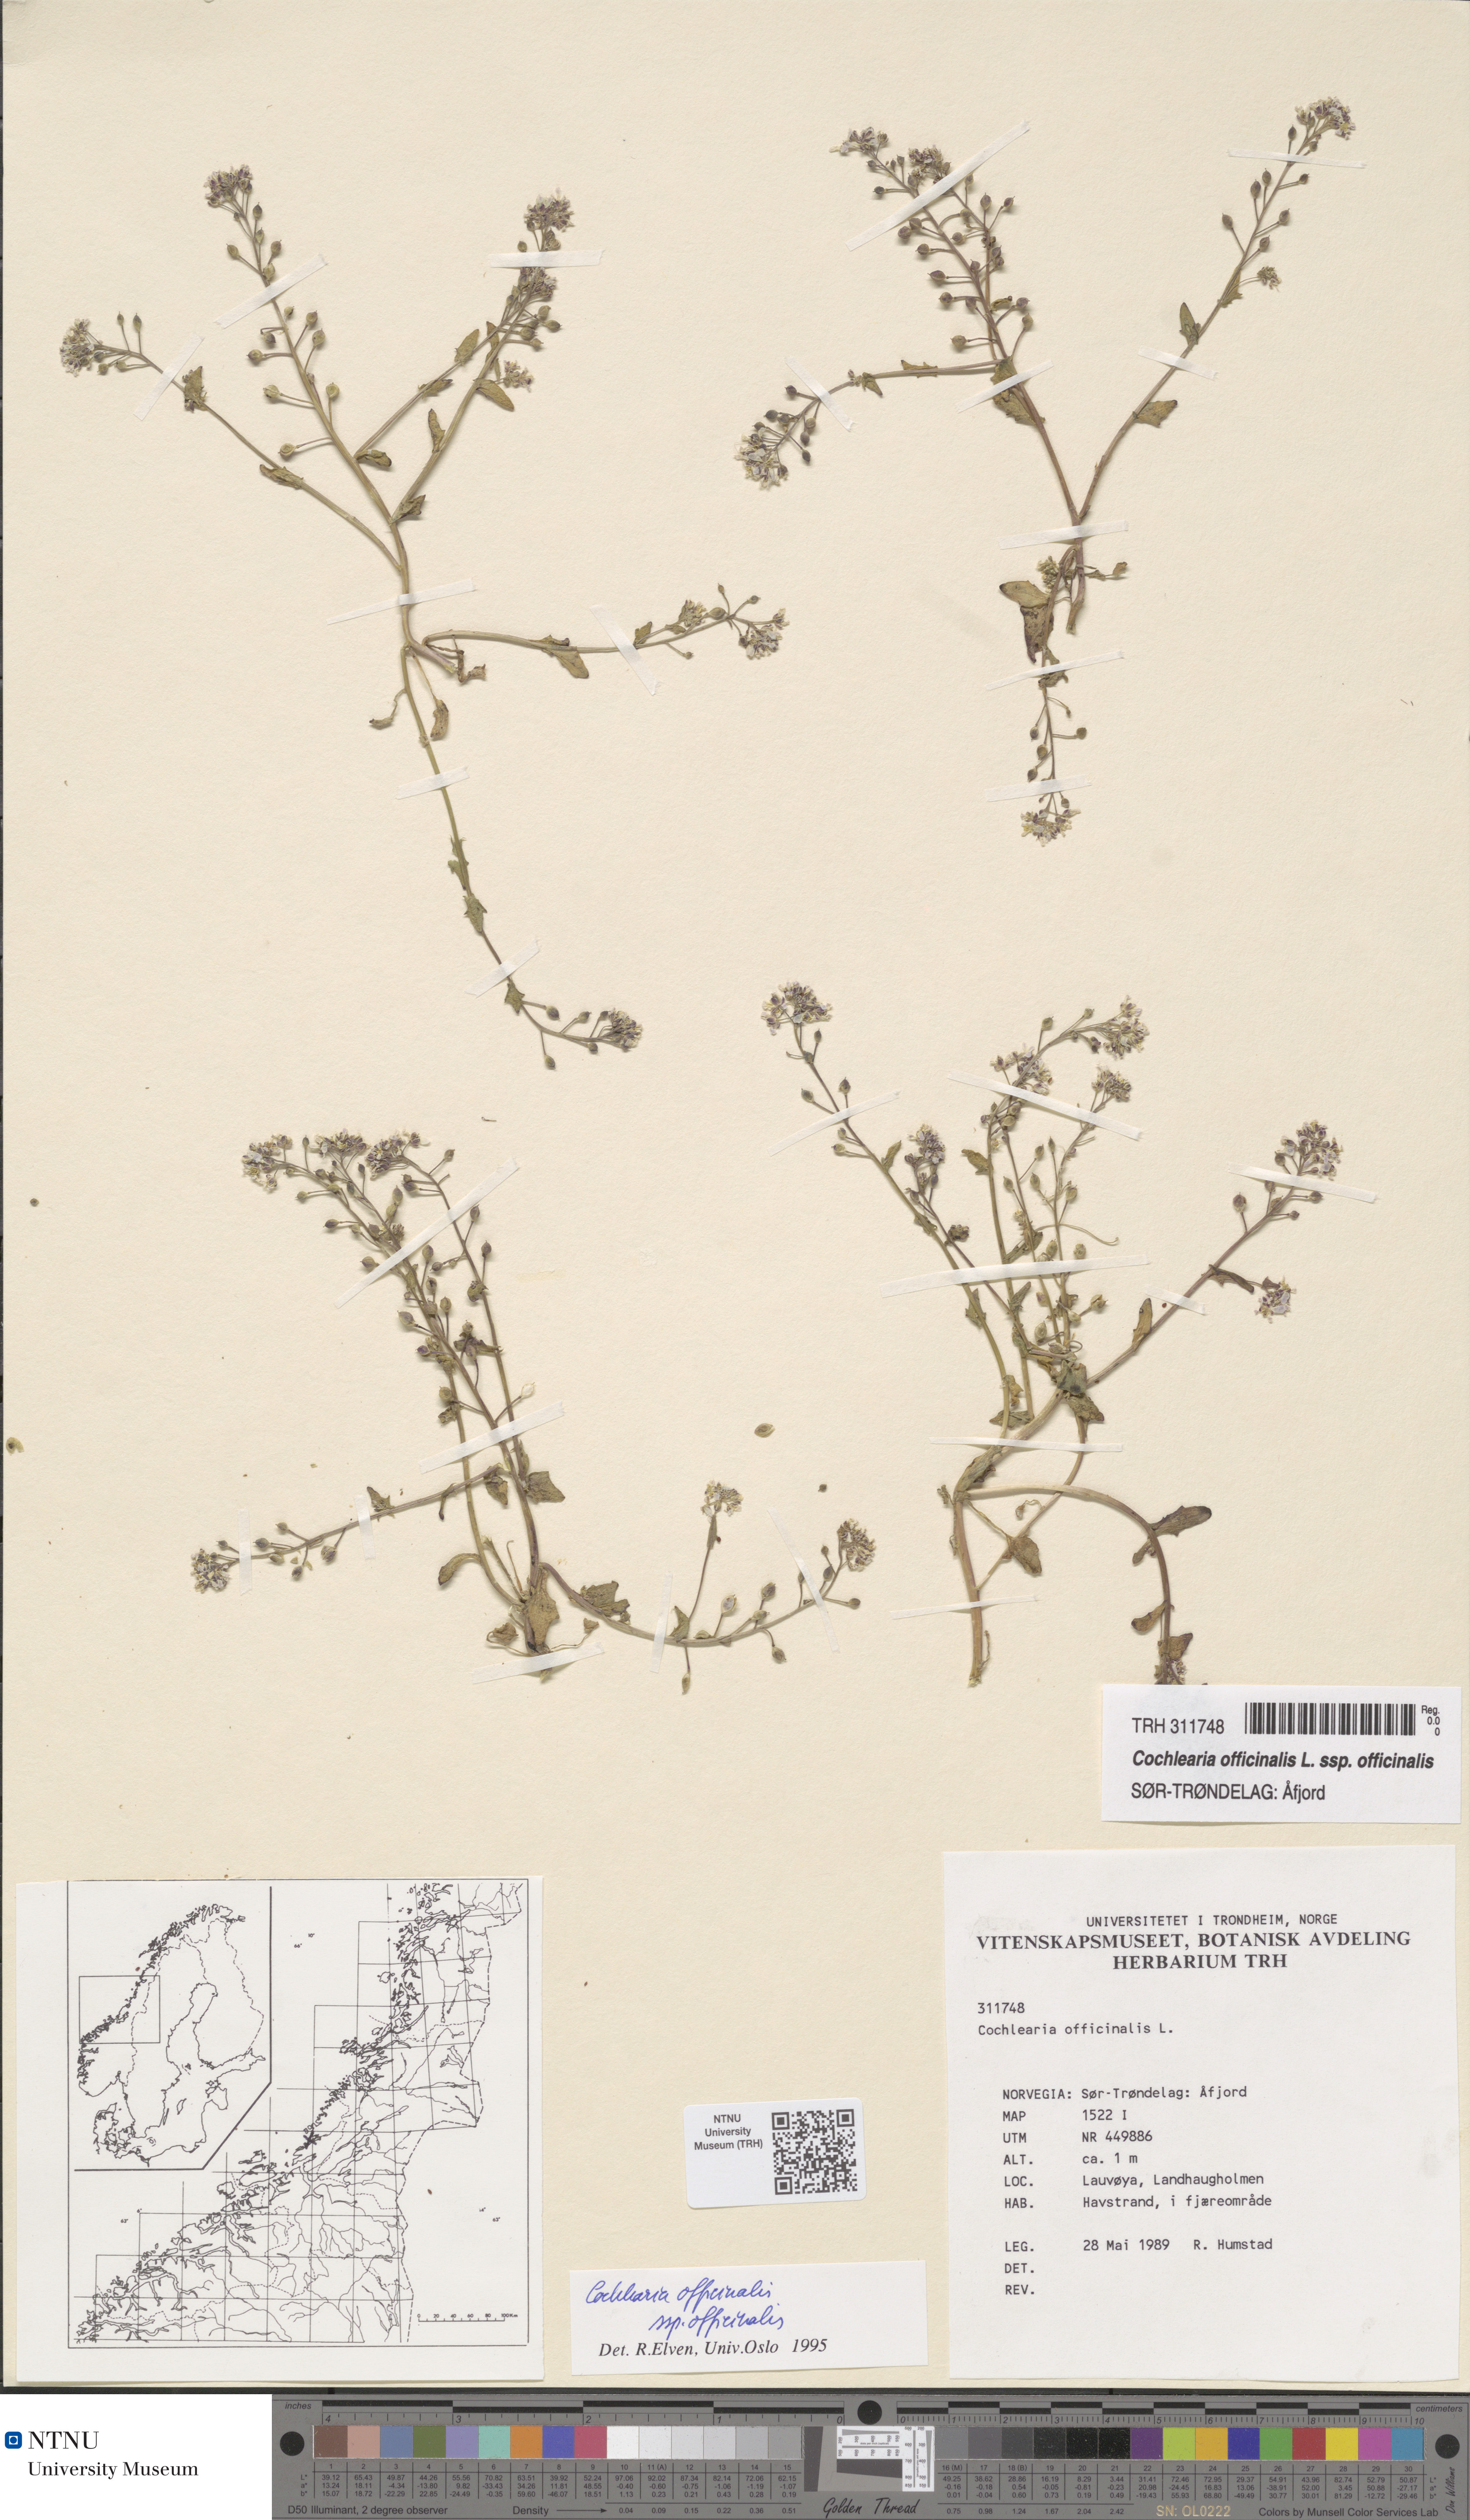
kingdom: Plantae
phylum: Tracheophyta
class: Magnoliopsida
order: Brassicales
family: Brassicaceae
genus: Cochlearia
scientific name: Cochlearia officinalis
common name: Scurvy-grass
